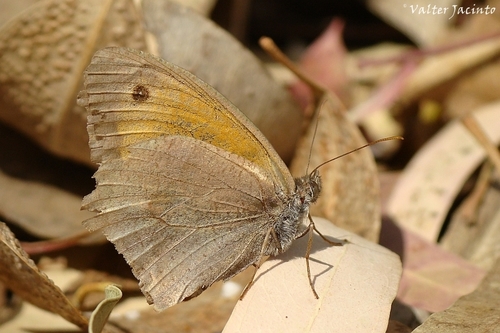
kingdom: Animalia
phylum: Arthropoda
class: Insecta
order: Lepidoptera
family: Nymphalidae
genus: Maniola
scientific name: Maniola jurtina
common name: Meadow brown
